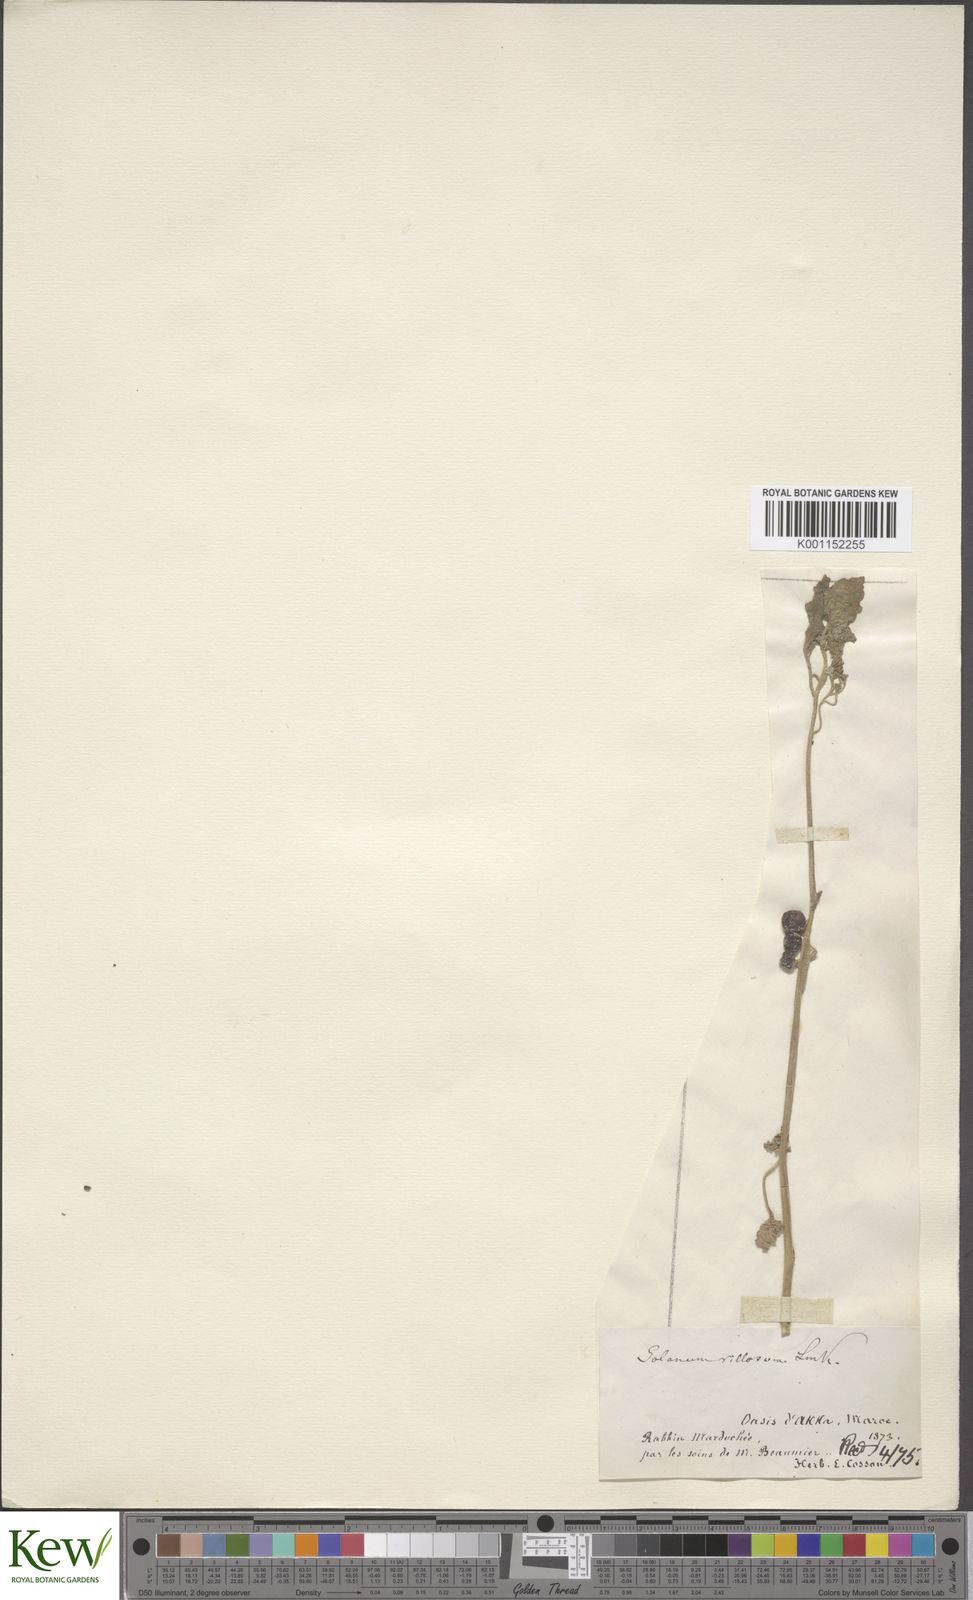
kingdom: Plantae
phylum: Tracheophyta
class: Magnoliopsida
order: Solanales
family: Solanaceae
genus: Solanum
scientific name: Solanum villosum
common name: Red nightshade
